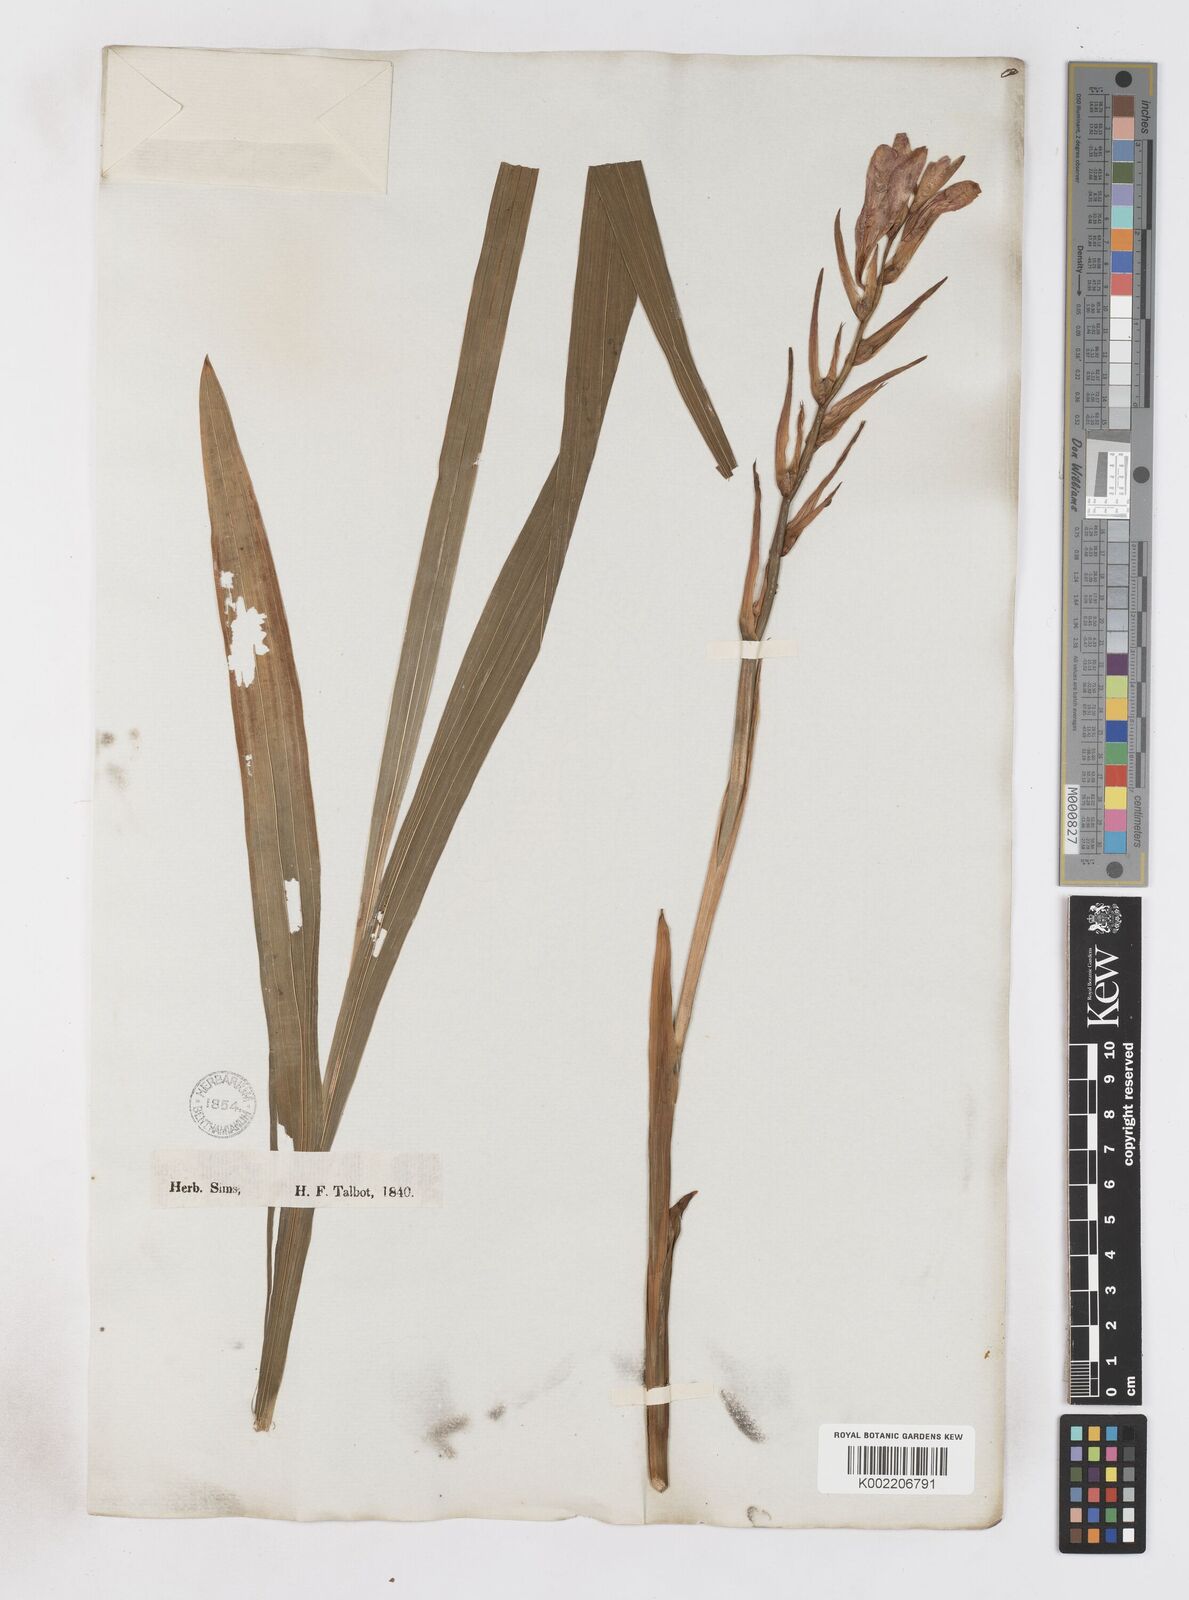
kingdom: Plantae
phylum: Tracheophyta
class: Liliopsida
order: Asparagales
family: Iridaceae
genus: Gladiolus
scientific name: Gladiolus
